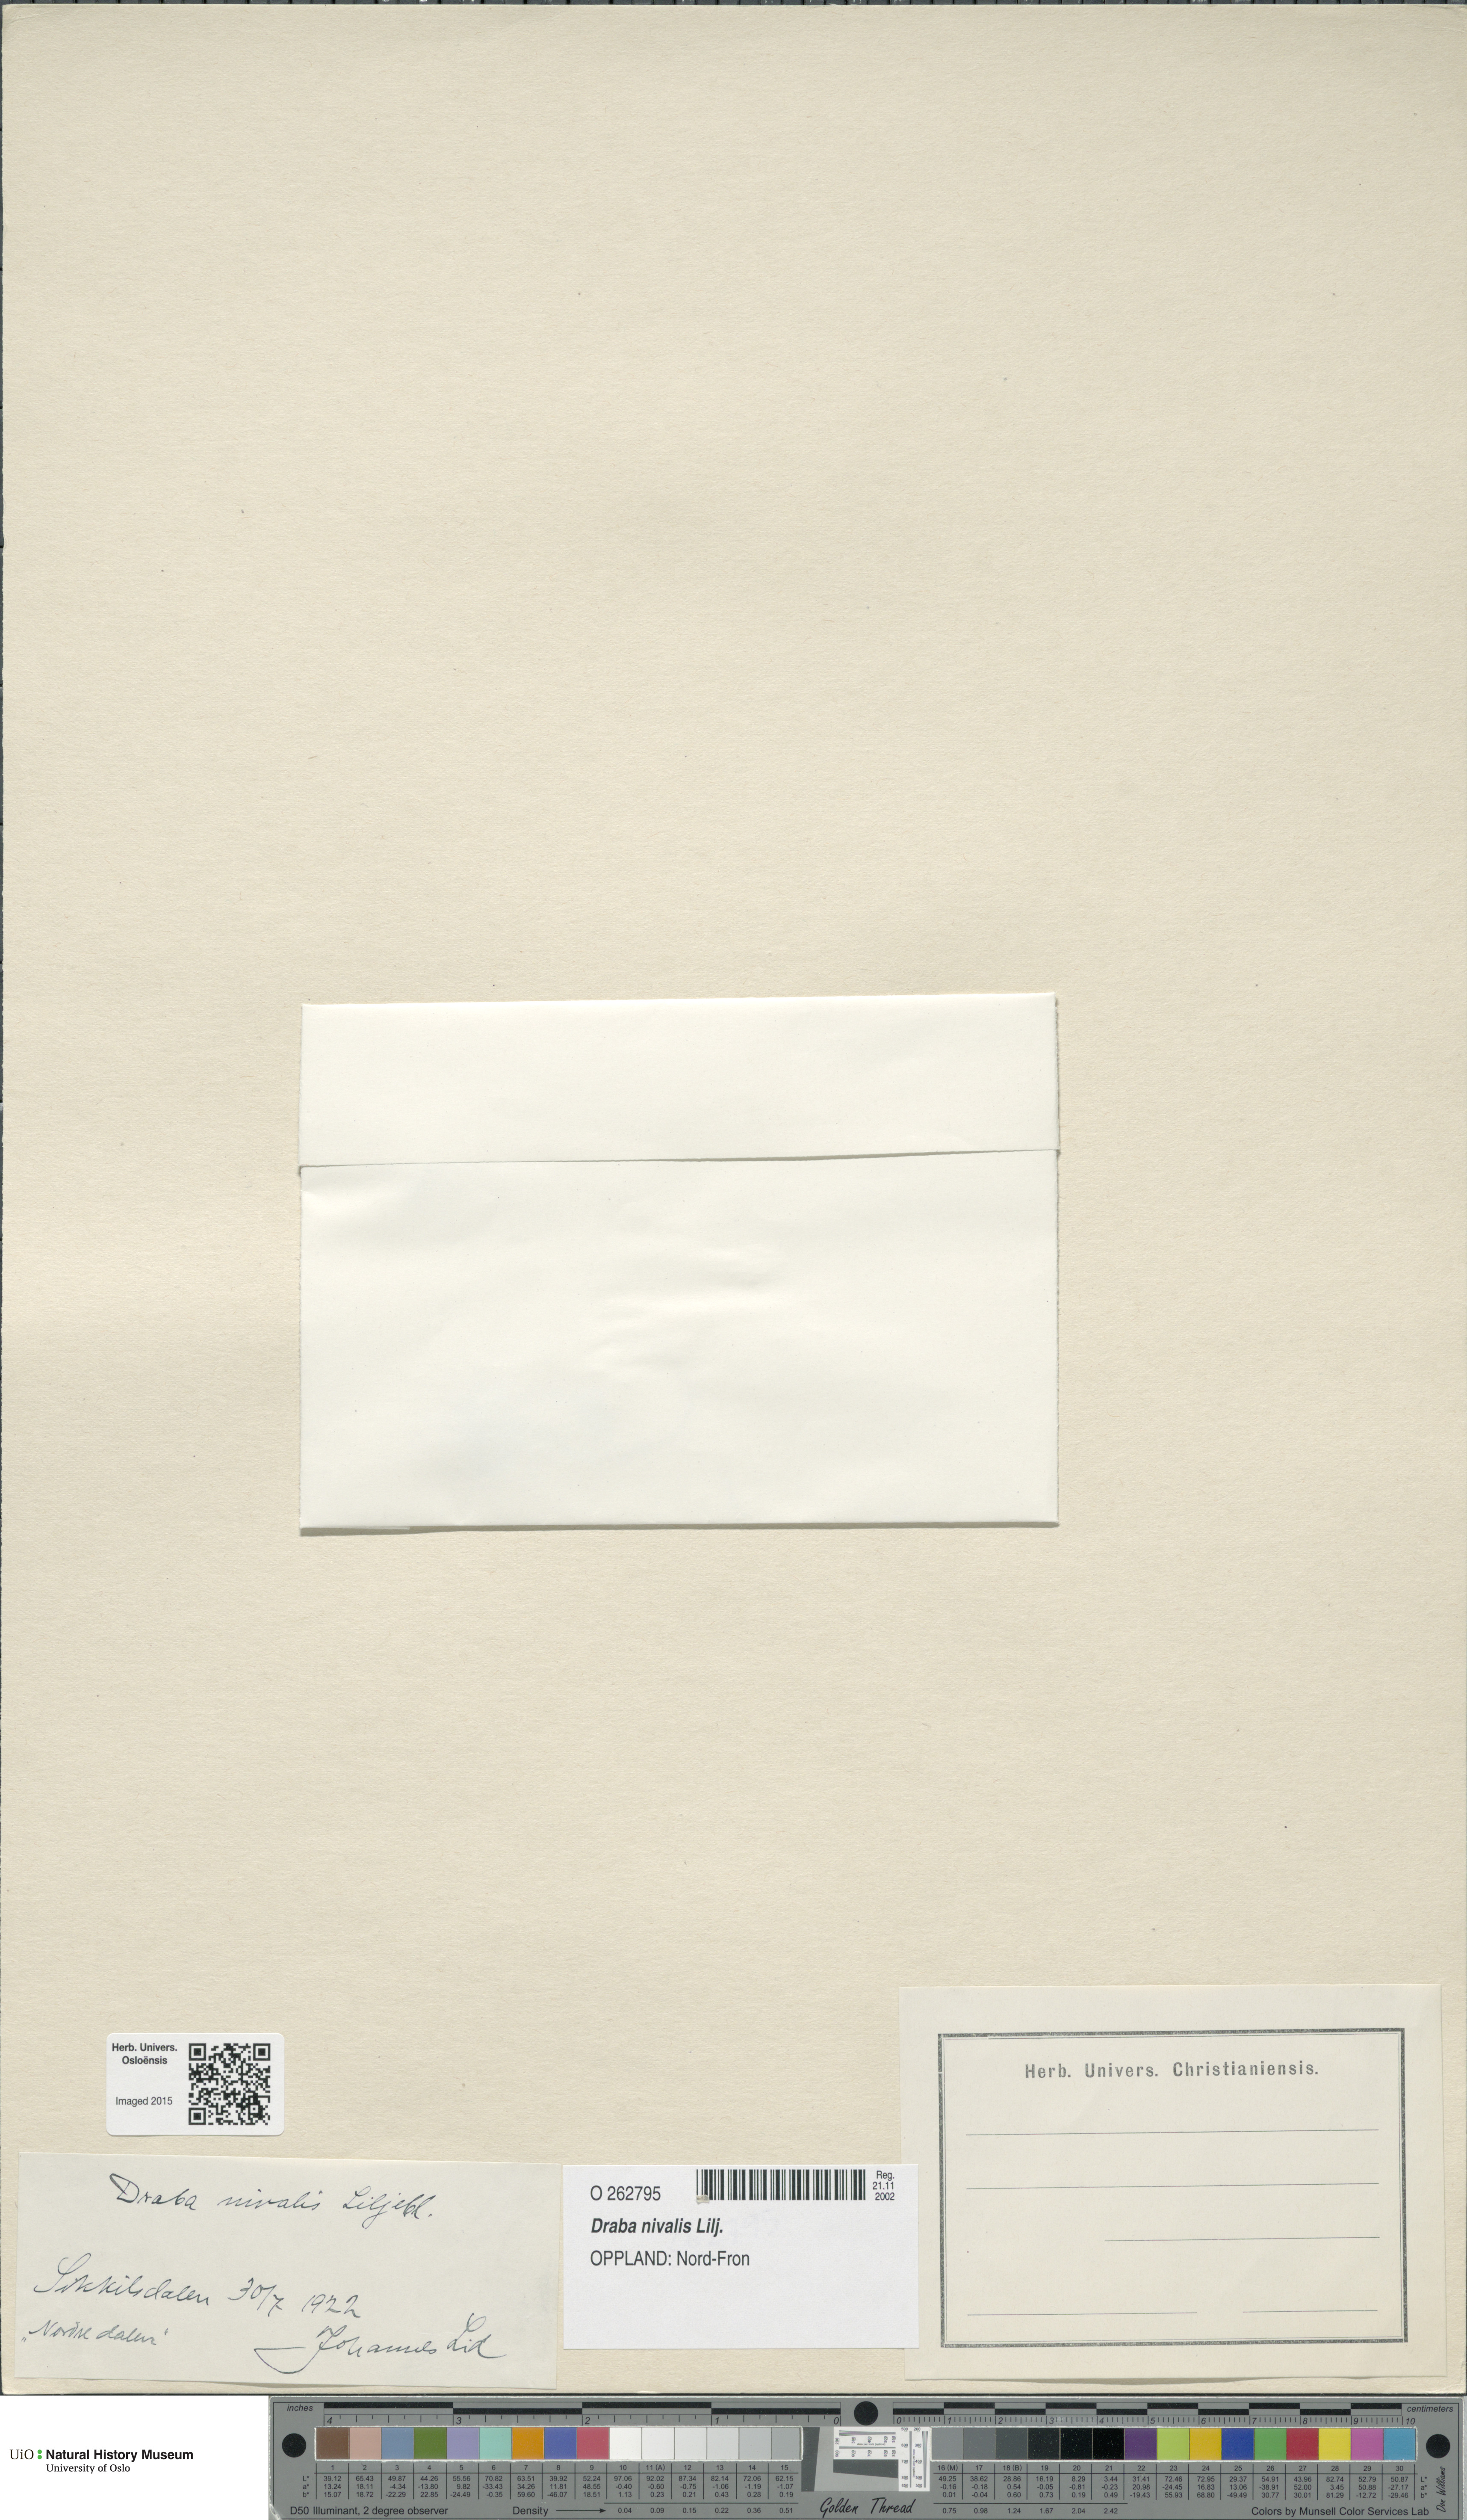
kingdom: Plantae
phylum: Tracheophyta
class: Magnoliopsida
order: Brassicales
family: Brassicaceae
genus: Draba
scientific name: Draba nivalis
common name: Snow draba
